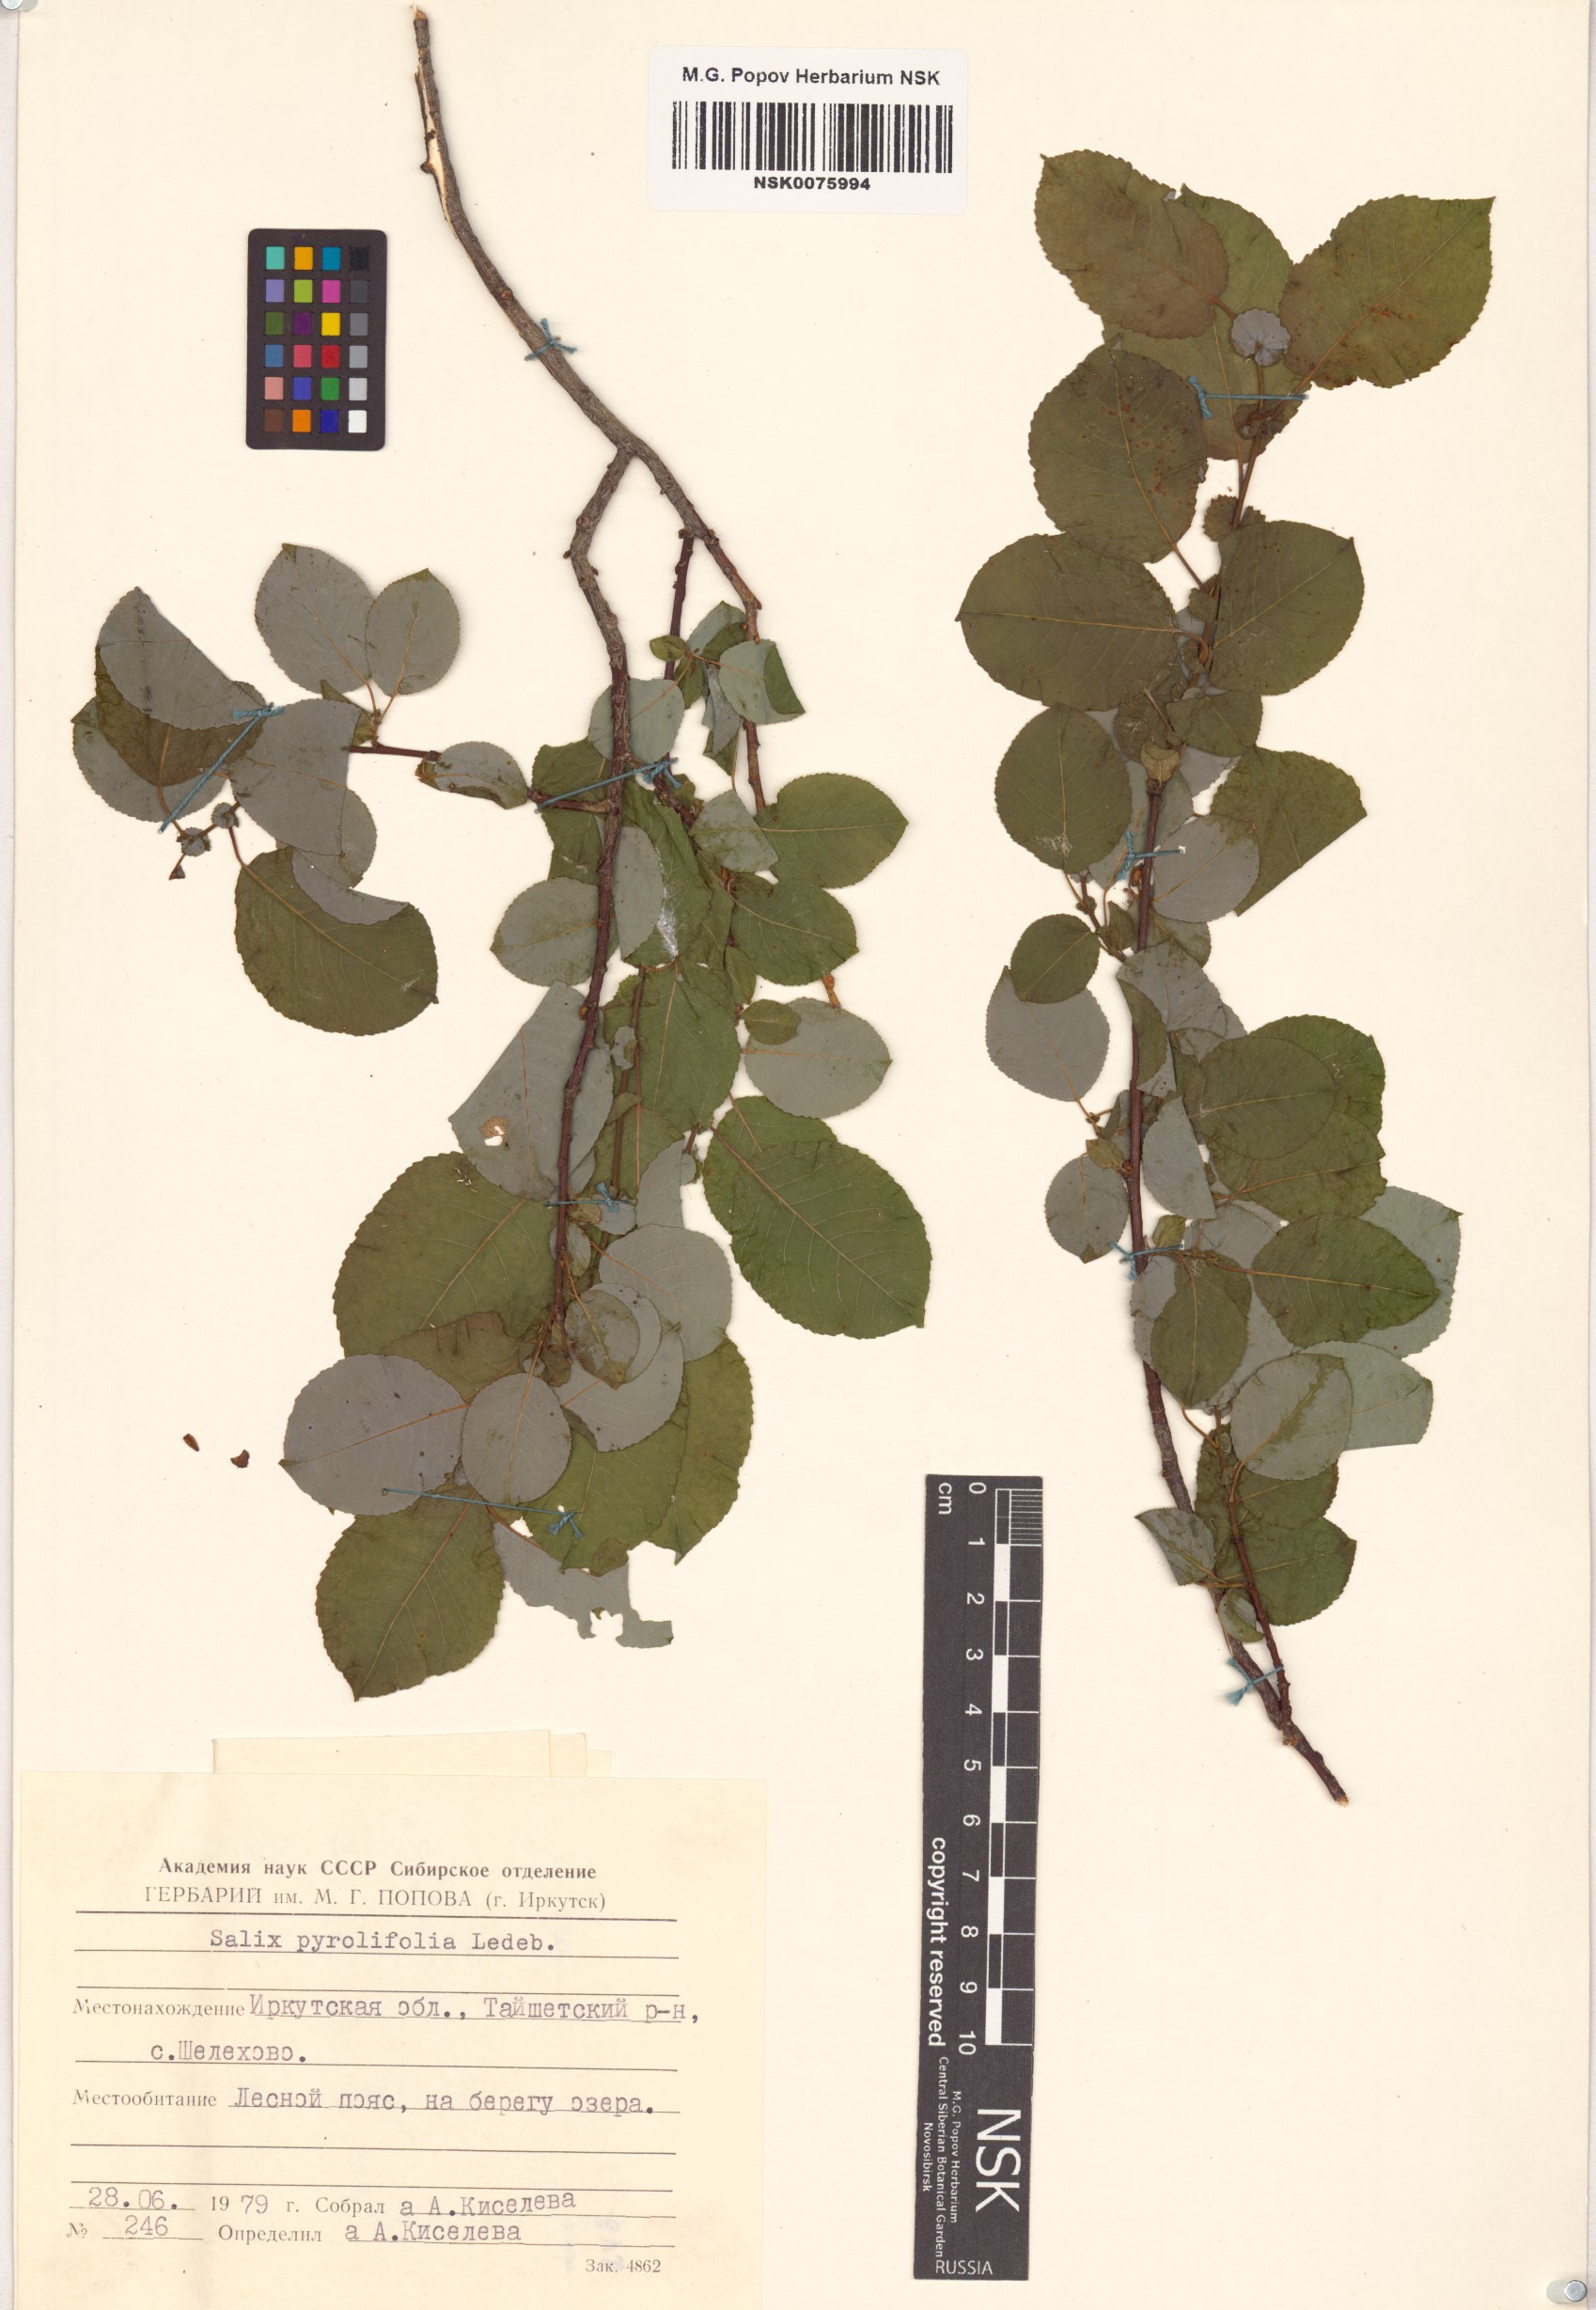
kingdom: Plantae
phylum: Tracheophyta
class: Magnoliopsida
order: Malpighiales
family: Salicaceae
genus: Salix
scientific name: Salix pyrolifolia
